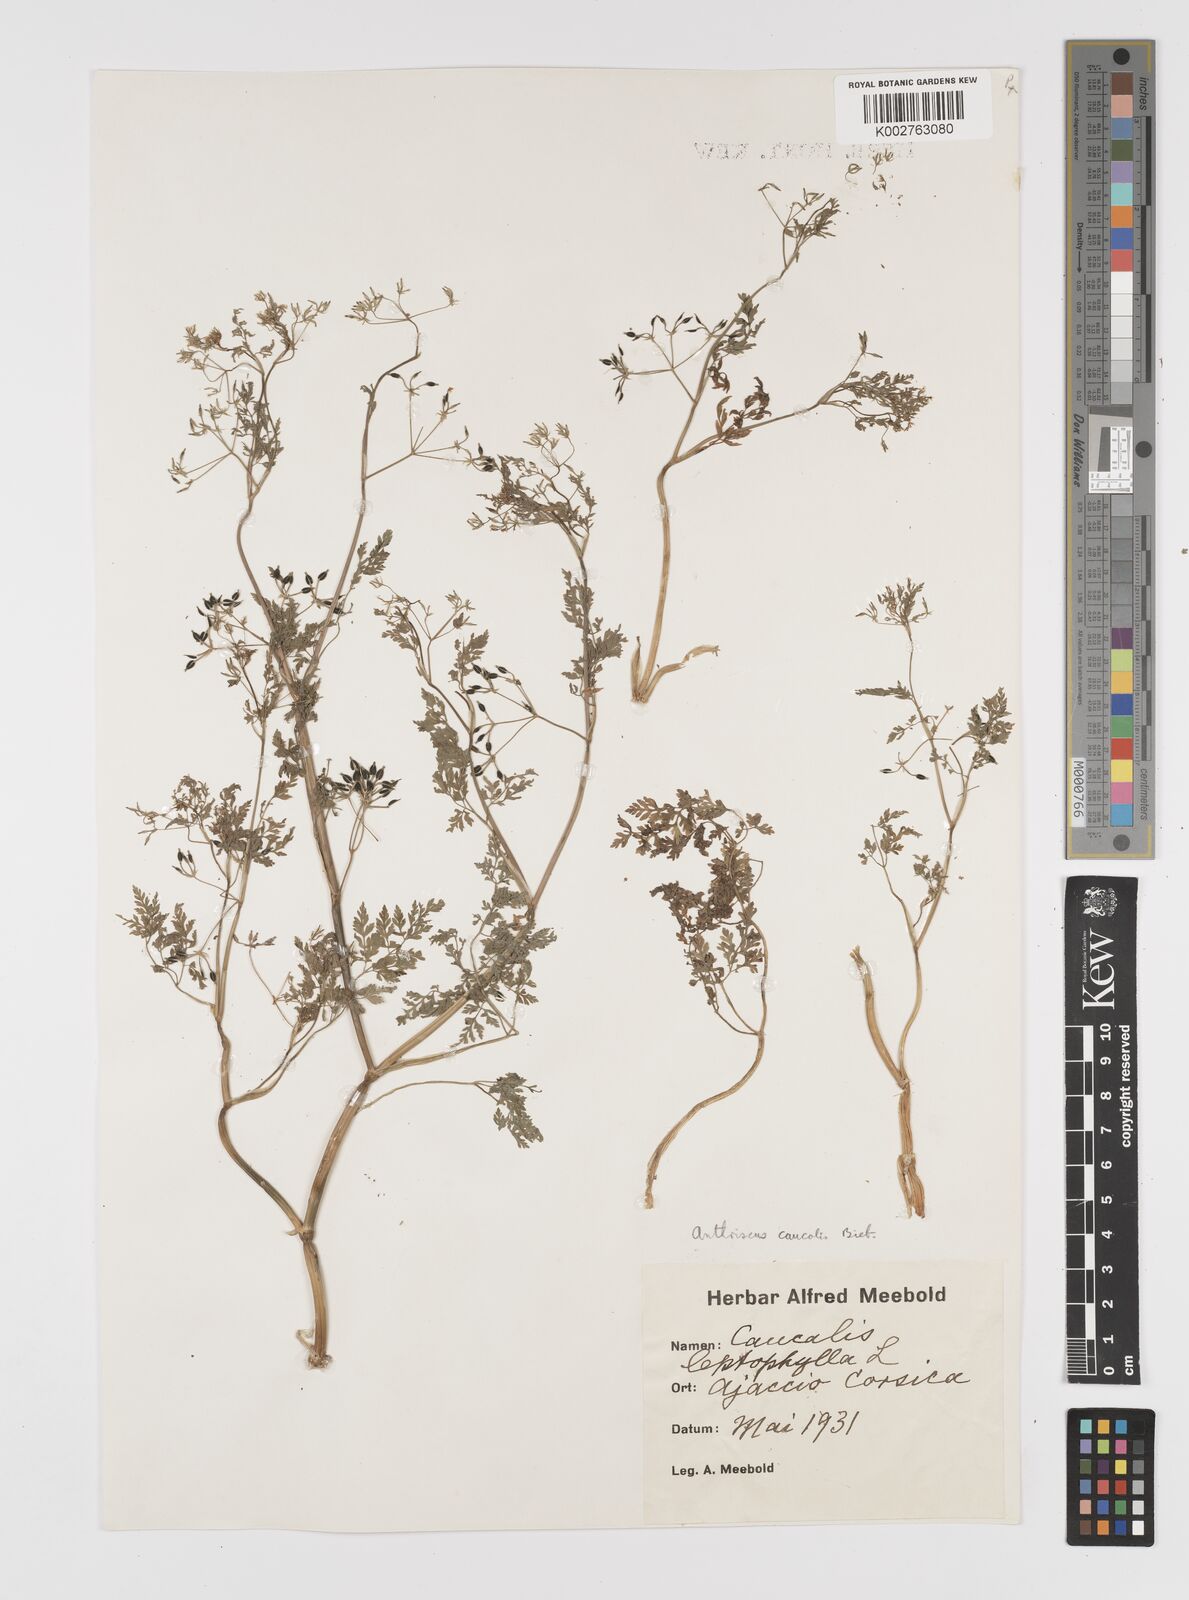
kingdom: Plantae
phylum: Tracheophyta
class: Magnoliopsida
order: Apiales
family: Apiaceae
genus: Anthriscus
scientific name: Anthriscus caucalis
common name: Bur chervil
